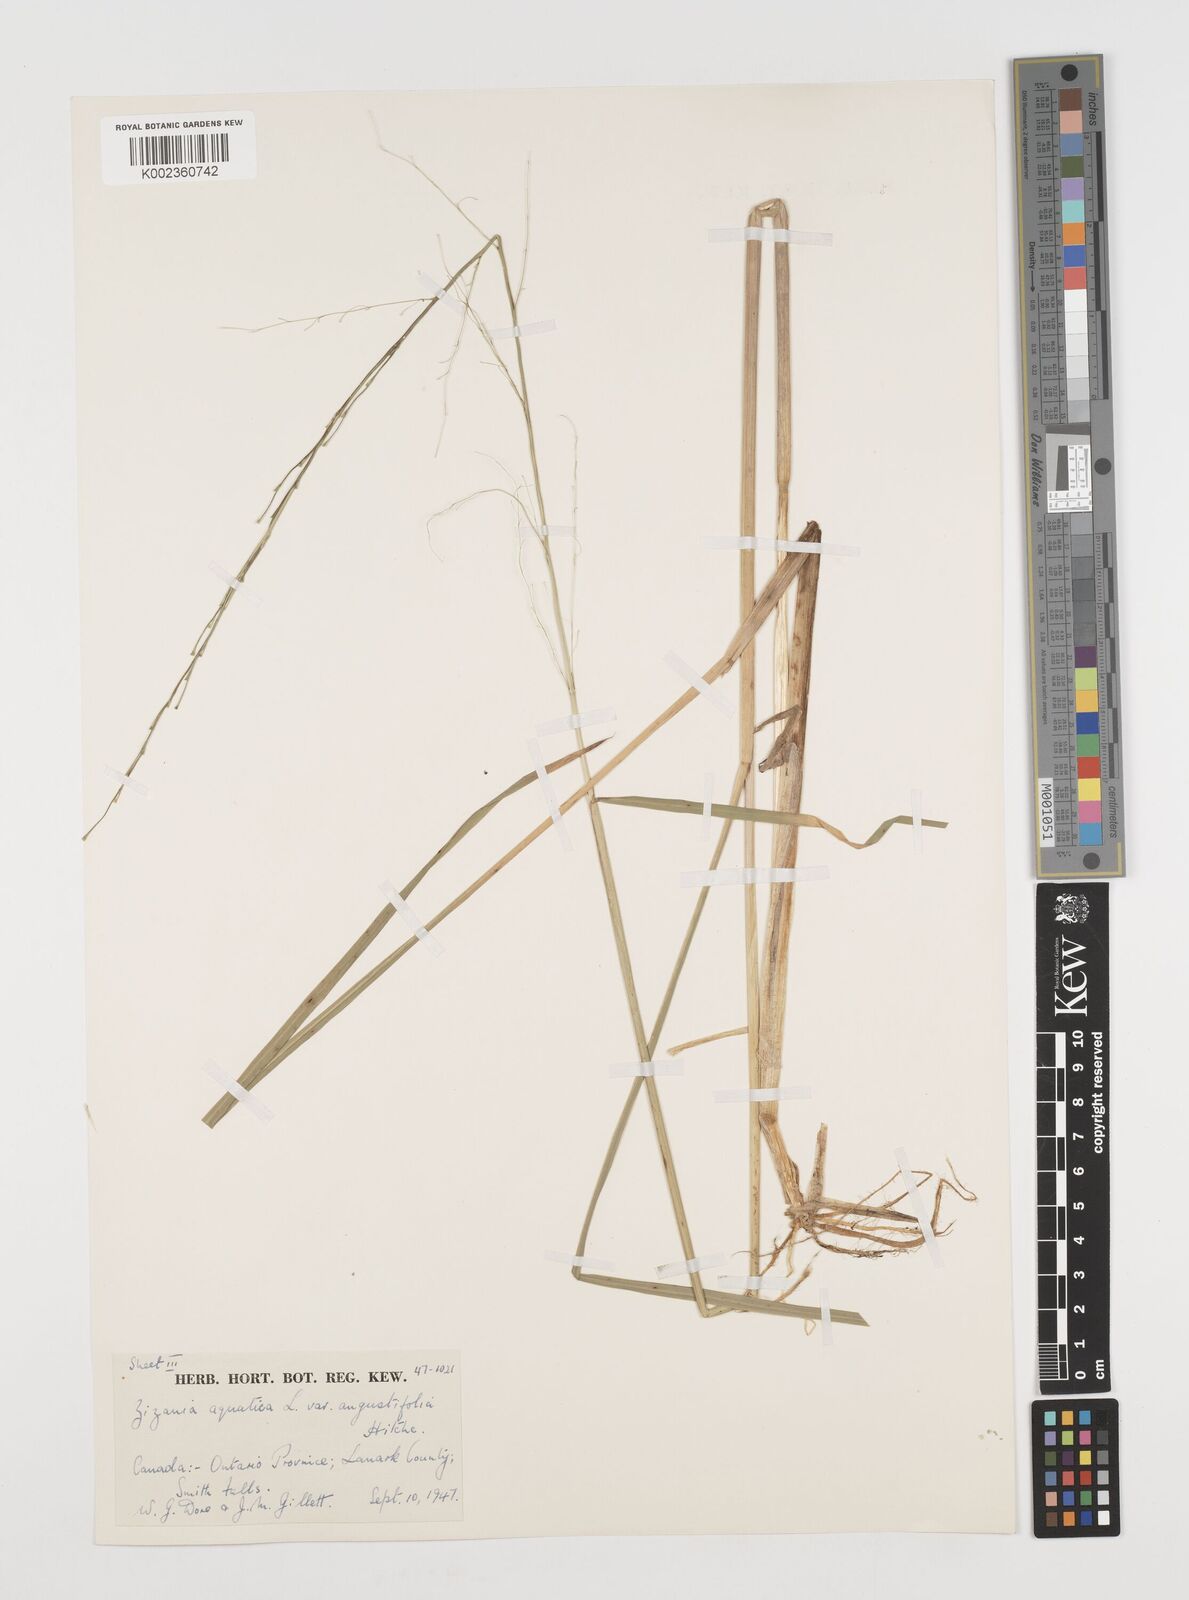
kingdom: Plantae
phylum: Tracheophyta
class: Liliopsida
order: Poales
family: Poaceae
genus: Zizania
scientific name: Zizania aquatica
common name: Annual wildrice
